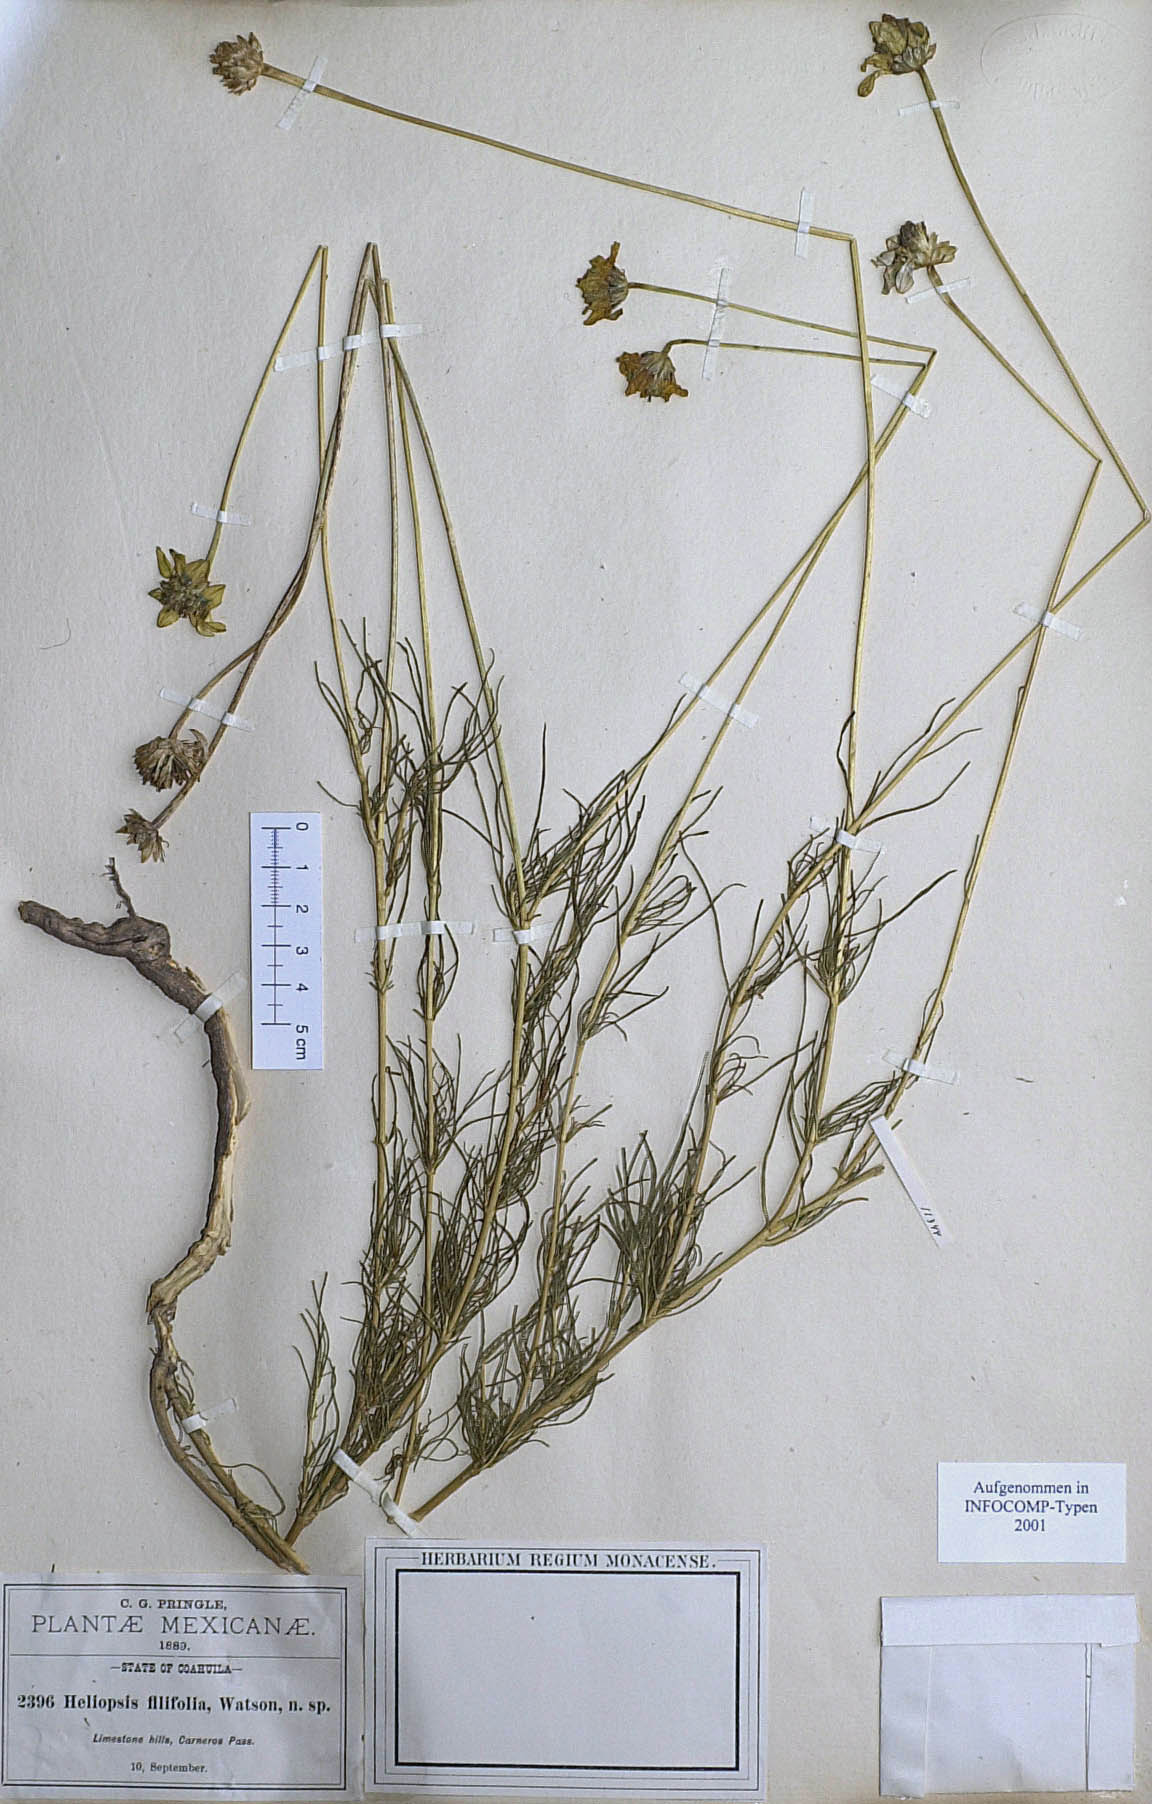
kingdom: Plantae
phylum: Tracheophyta
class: Magnoliopsida
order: Asterales
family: Asteraceae
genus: Heliopsis
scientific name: Heliopsis filifolia
